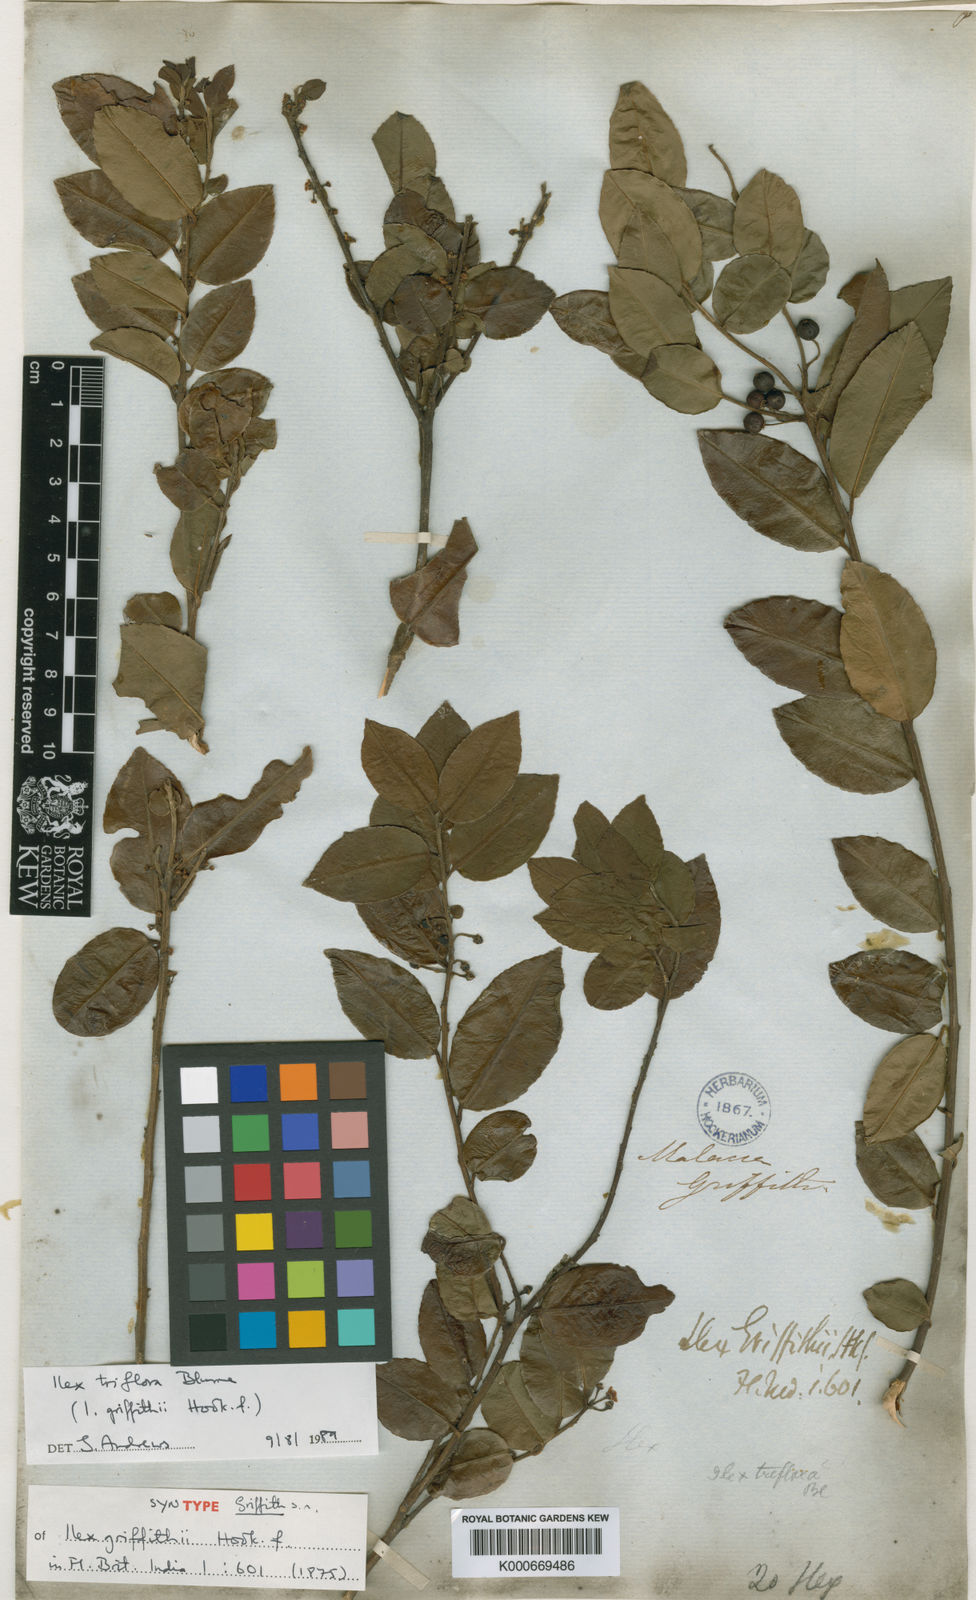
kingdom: Plantae
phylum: Tracheophyta
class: Magnoliopsida
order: Aquifoliales
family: Aquifoliaceae
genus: Ilex
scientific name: Ilex triflora
